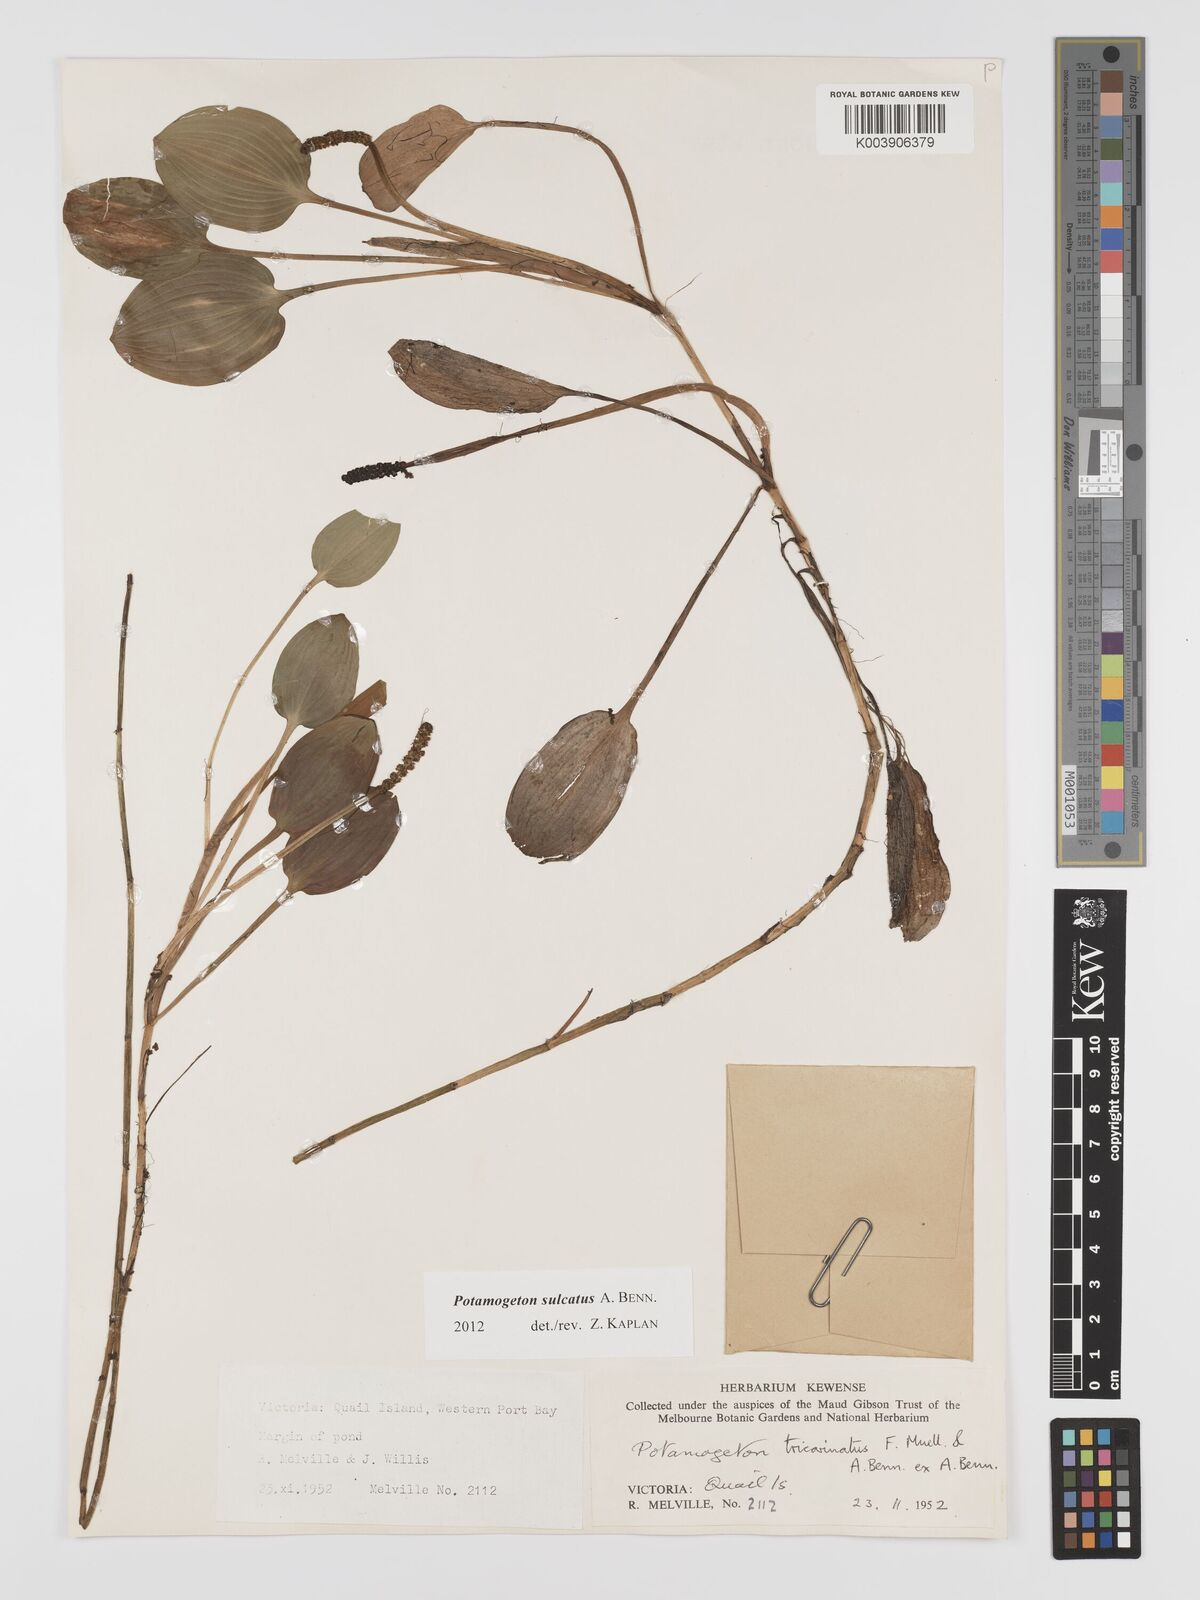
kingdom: Plantae
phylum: Tracheophyta
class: Liliopsida
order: Alismatales
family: Potamogetonaceae
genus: Potamogeton
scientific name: Potamogeton tricarinatus
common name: Pondweed
